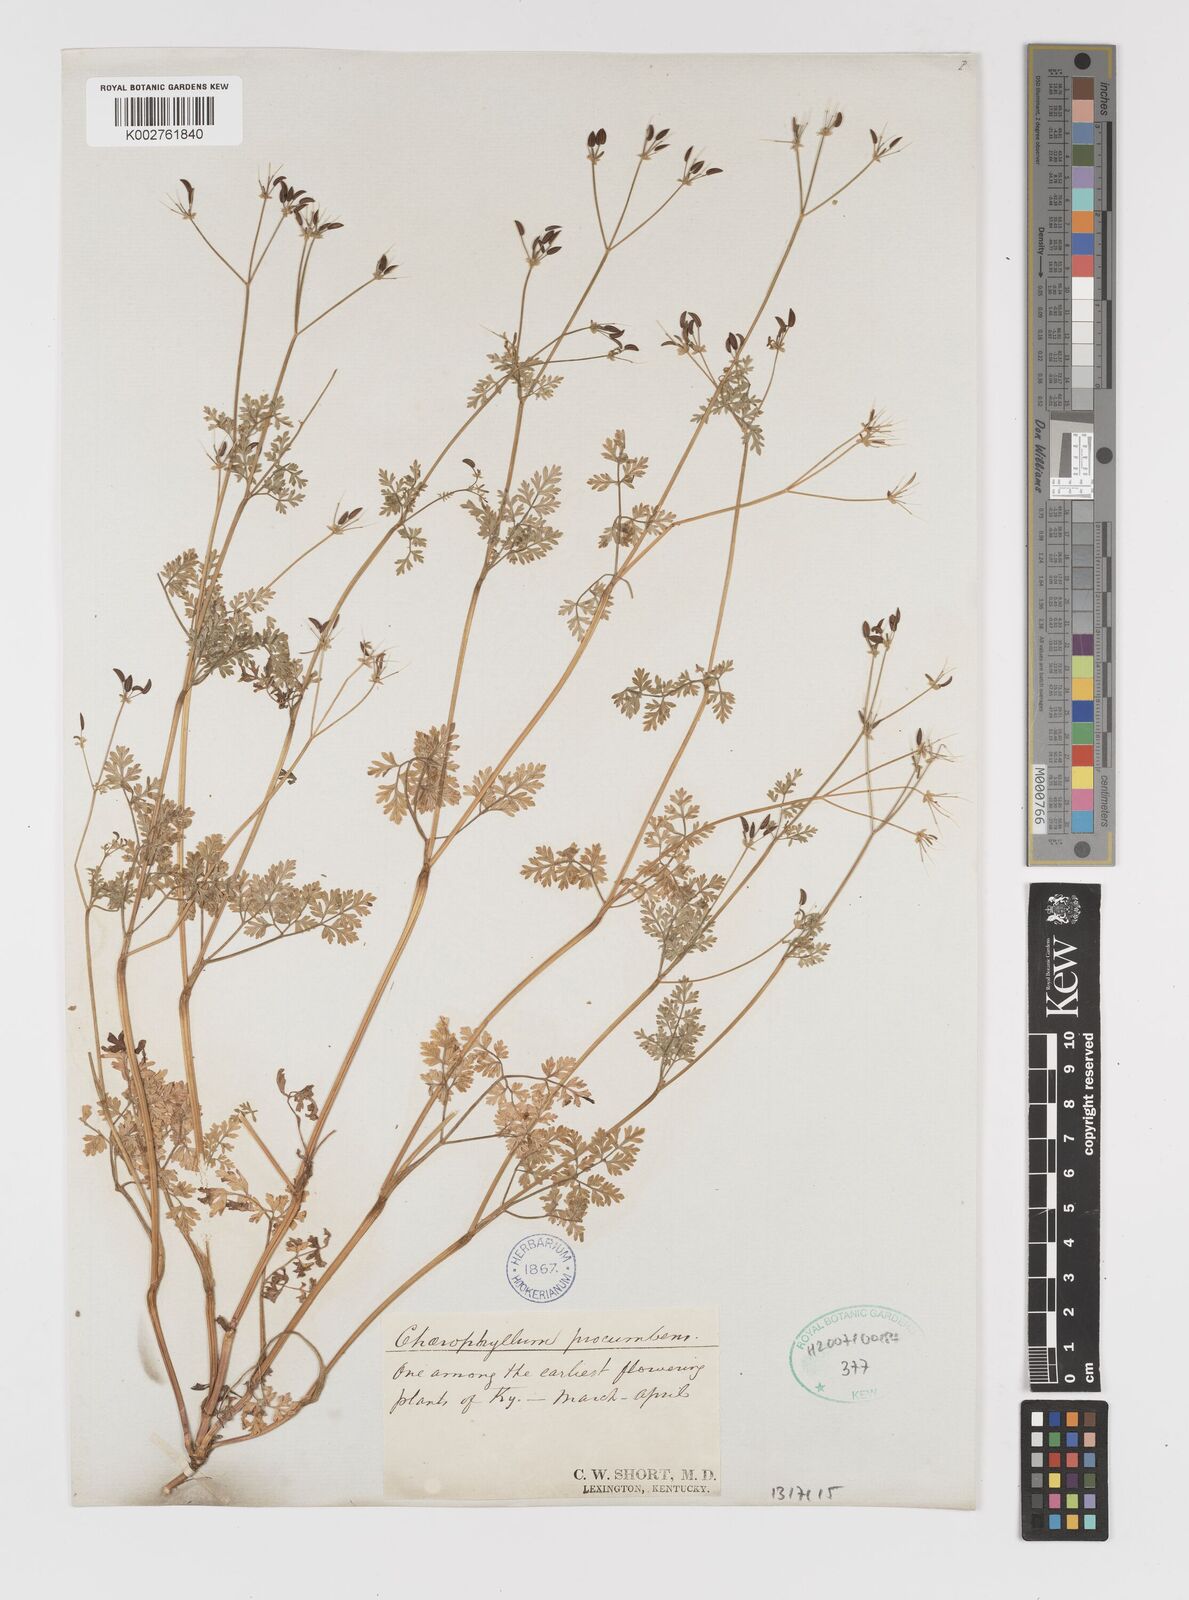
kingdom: Plantae
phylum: Tracheophyta
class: Magnoliopsida
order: Apiales
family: Apiaceae
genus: Chaerophyllum
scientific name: Chaerophyllum procumbens
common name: Spreading chervil
